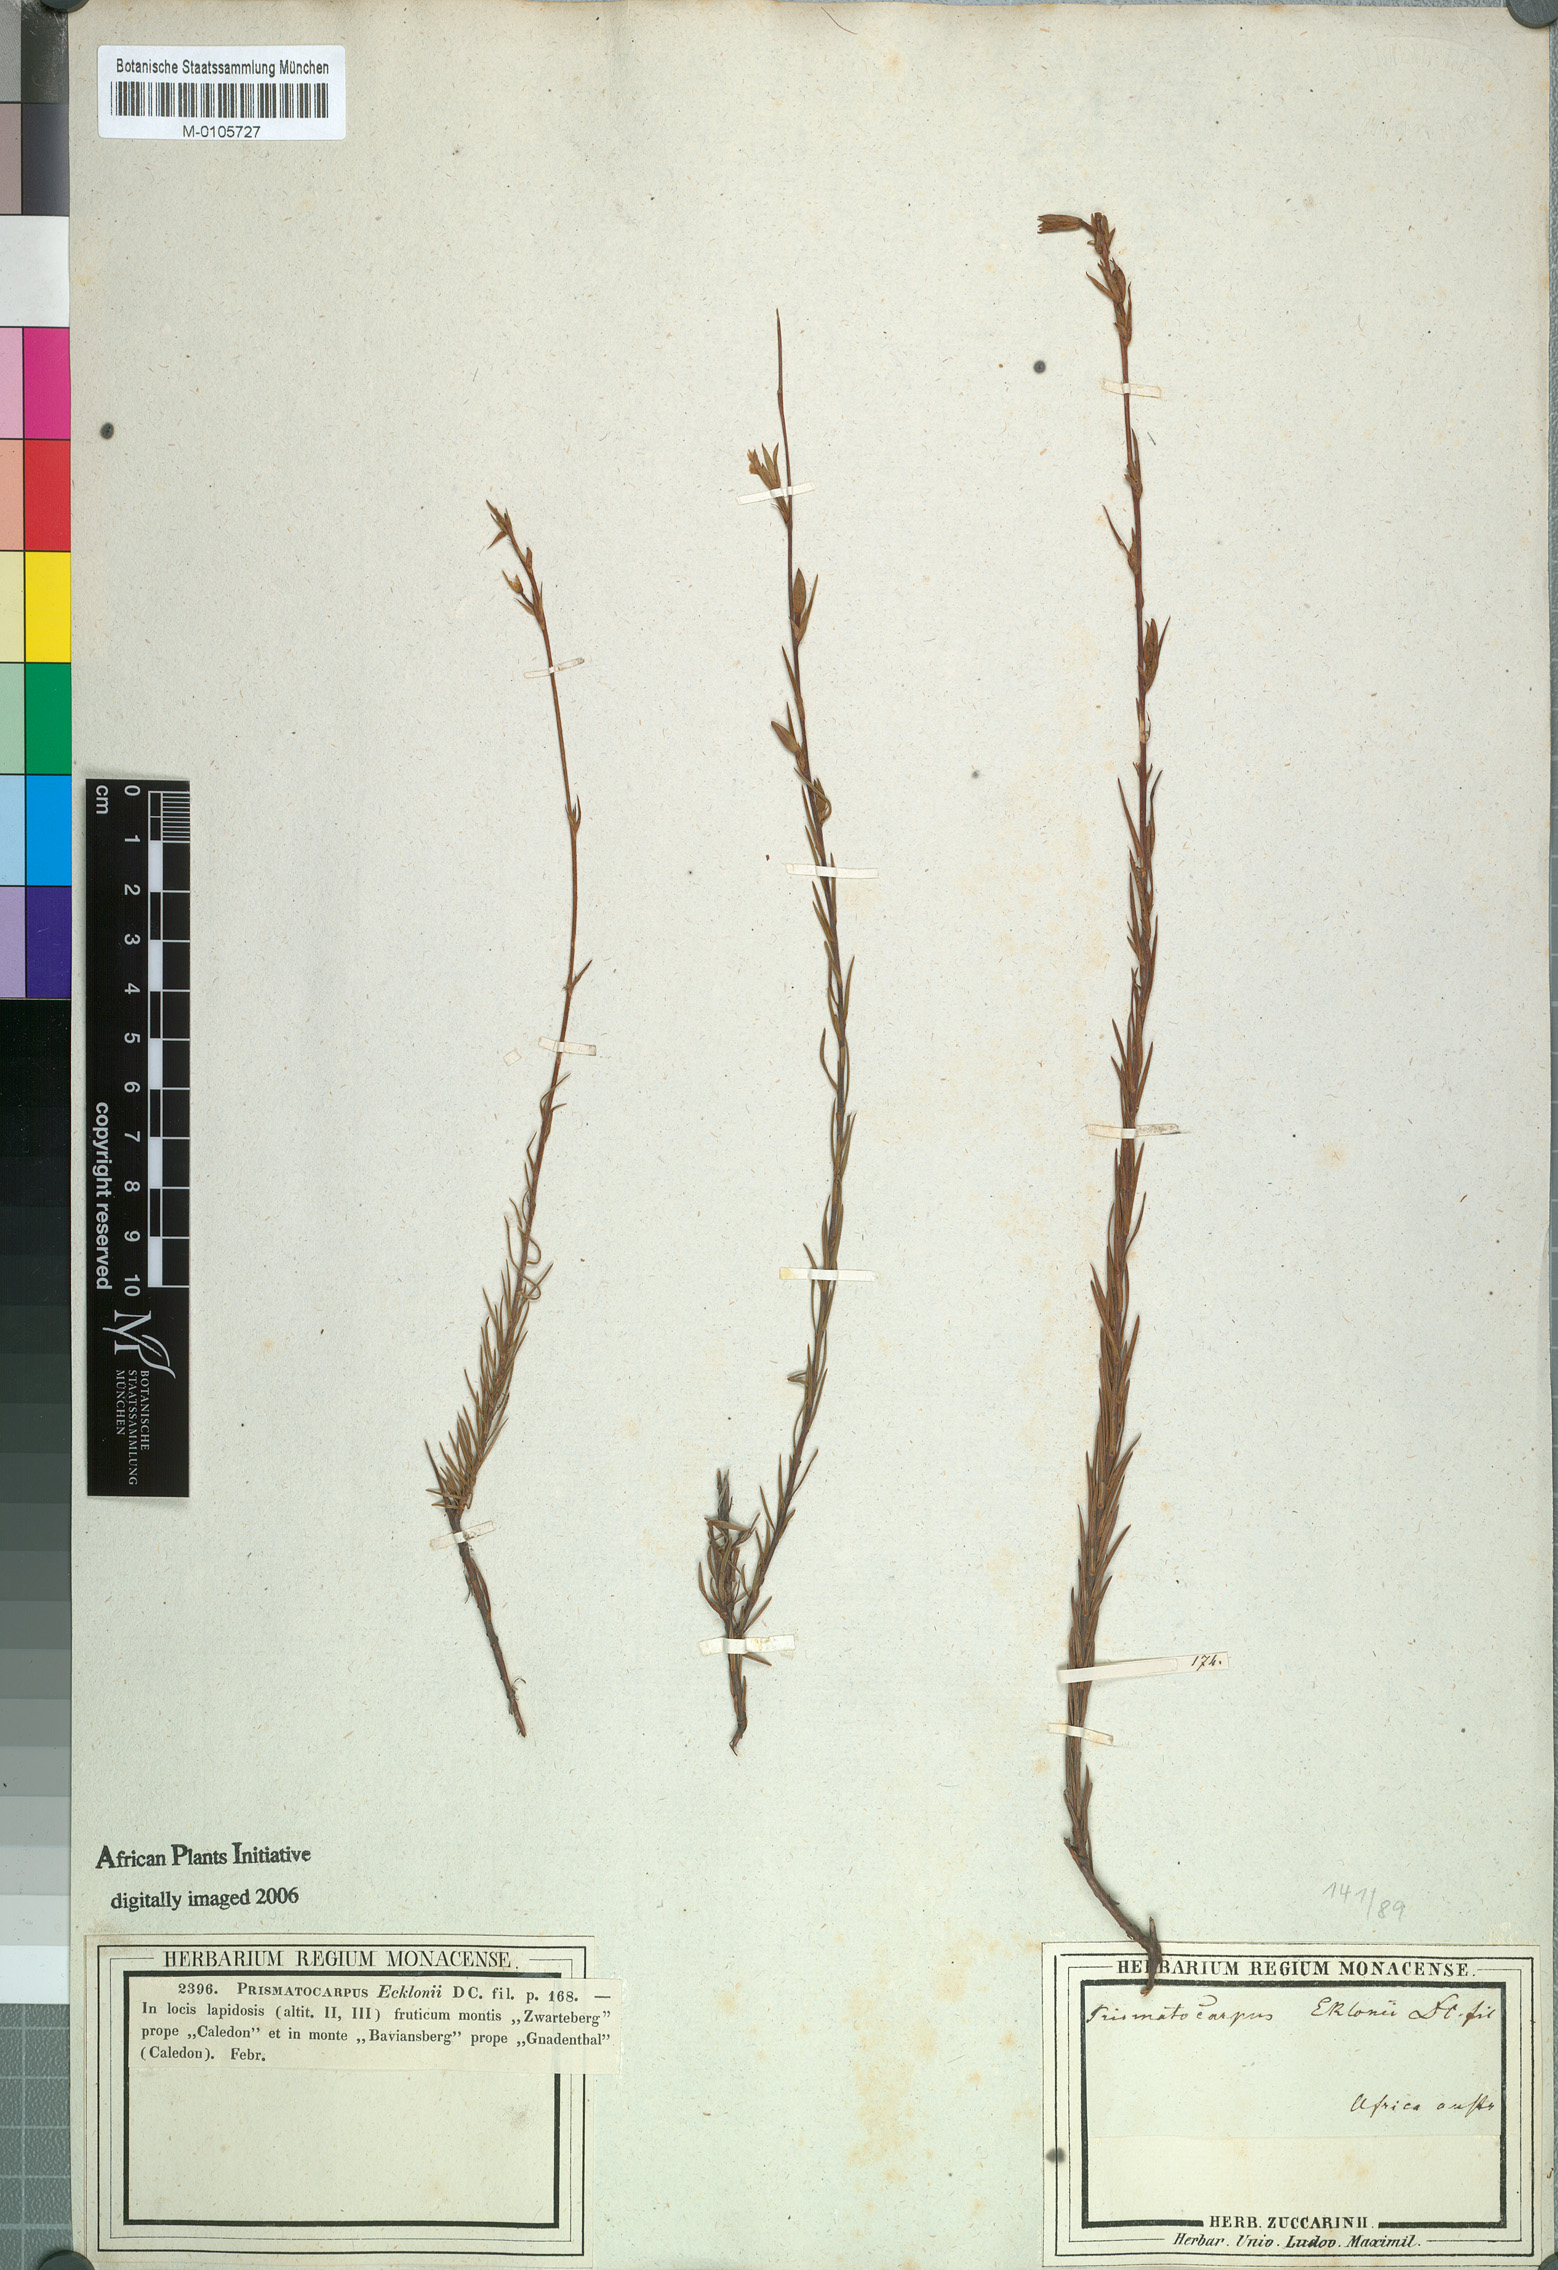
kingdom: Plantae
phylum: Tracheophyta
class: Magnoliopsida
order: Asterales
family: Campanulaceae
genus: Prismatocarpus
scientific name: Prismatocarpus campanuloides
